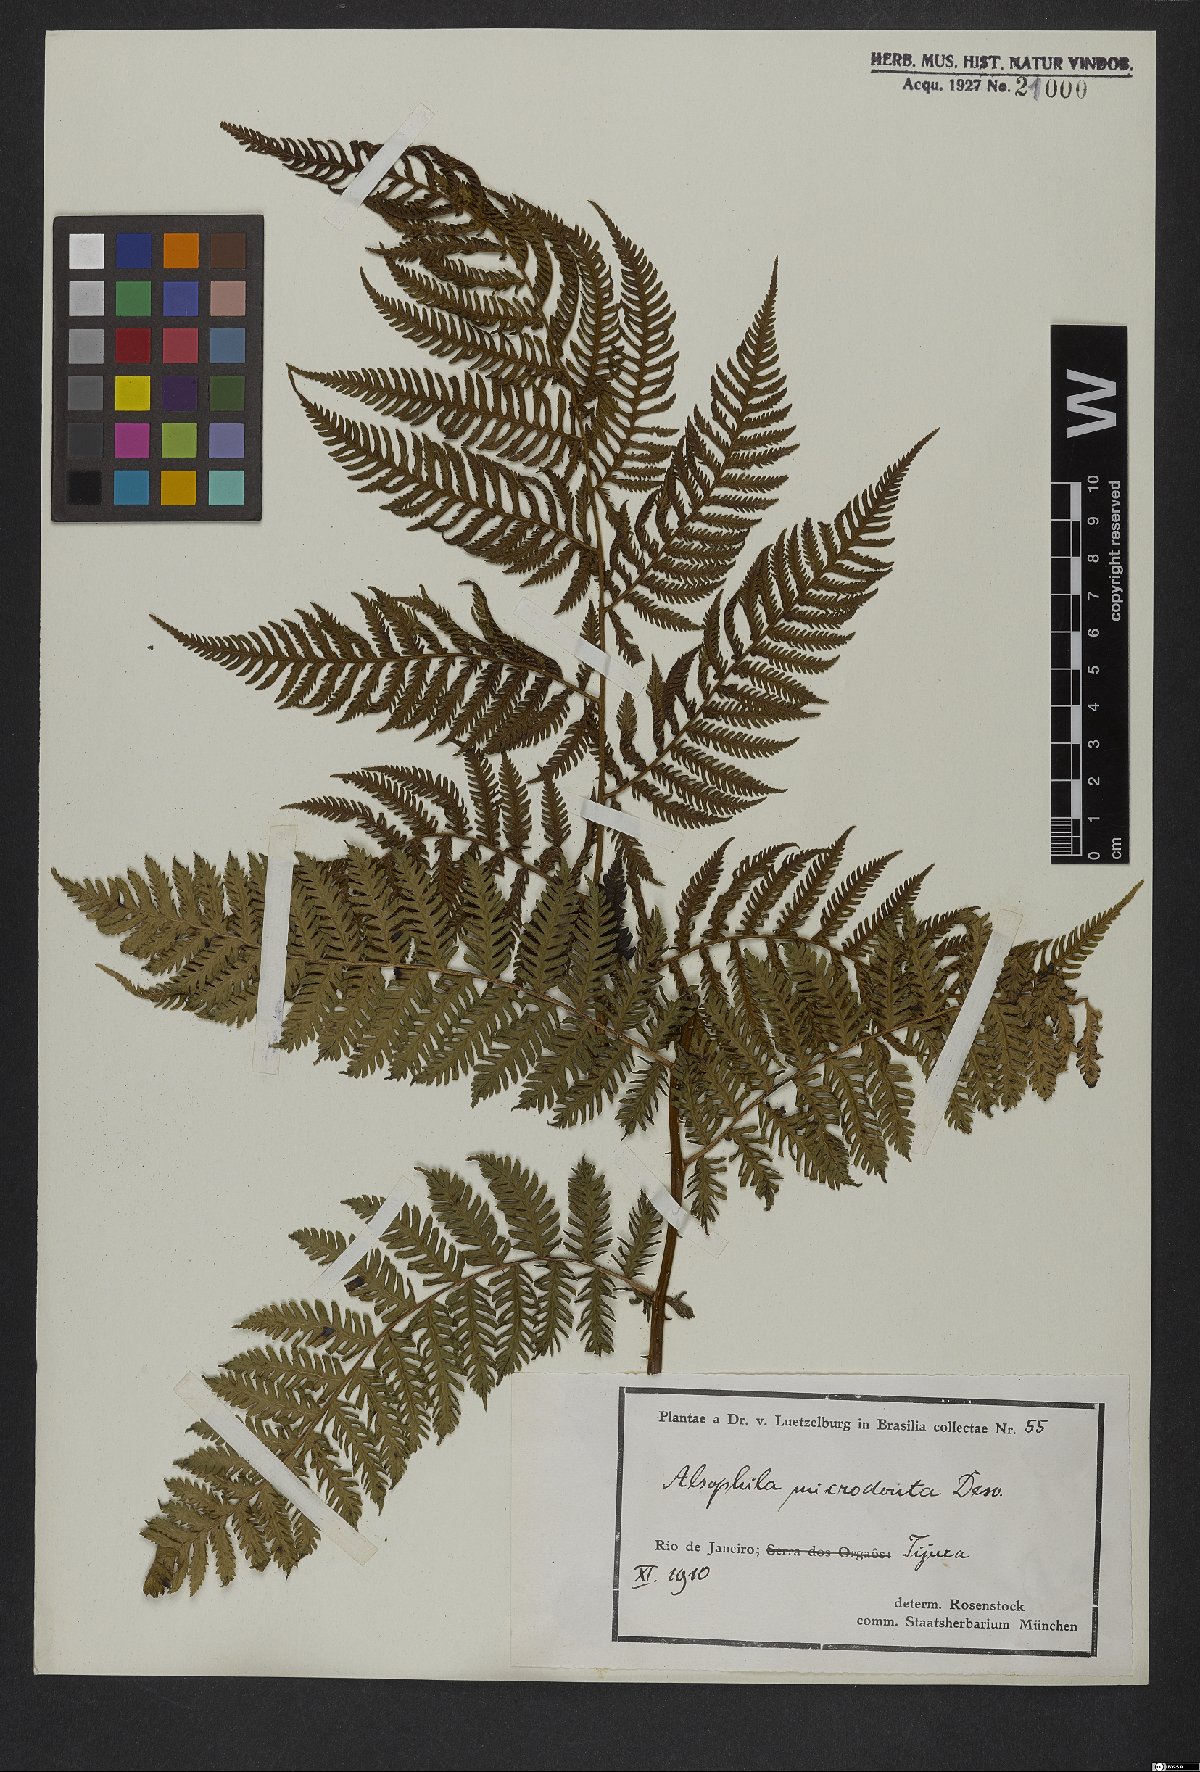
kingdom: Plantae
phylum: Tracheophyta
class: Polypodiopsida
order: Cyatheales
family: Cyatheaceae
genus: Cyathea
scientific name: Cyathea microdonta
